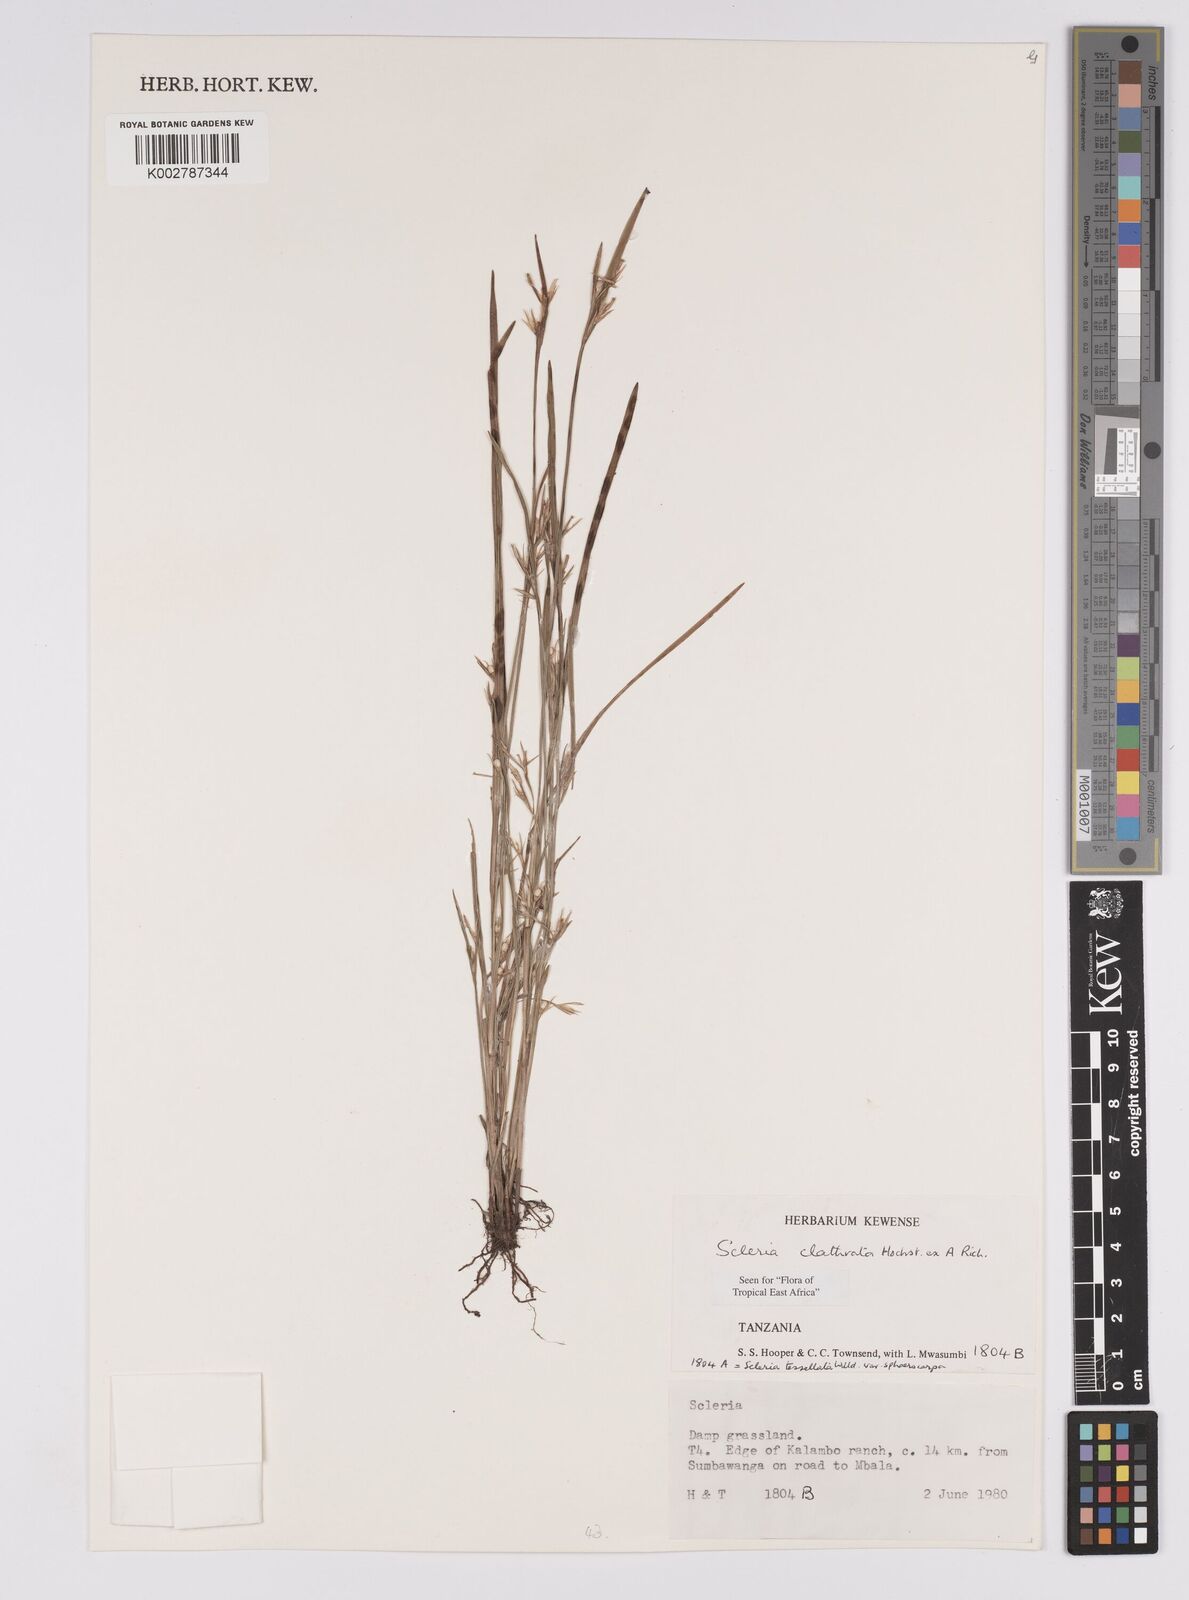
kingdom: Plantae
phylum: Tracheophyta
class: Liliopsida
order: Poales
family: Cyperaceae
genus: Scleria
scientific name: Scleria clathrata
